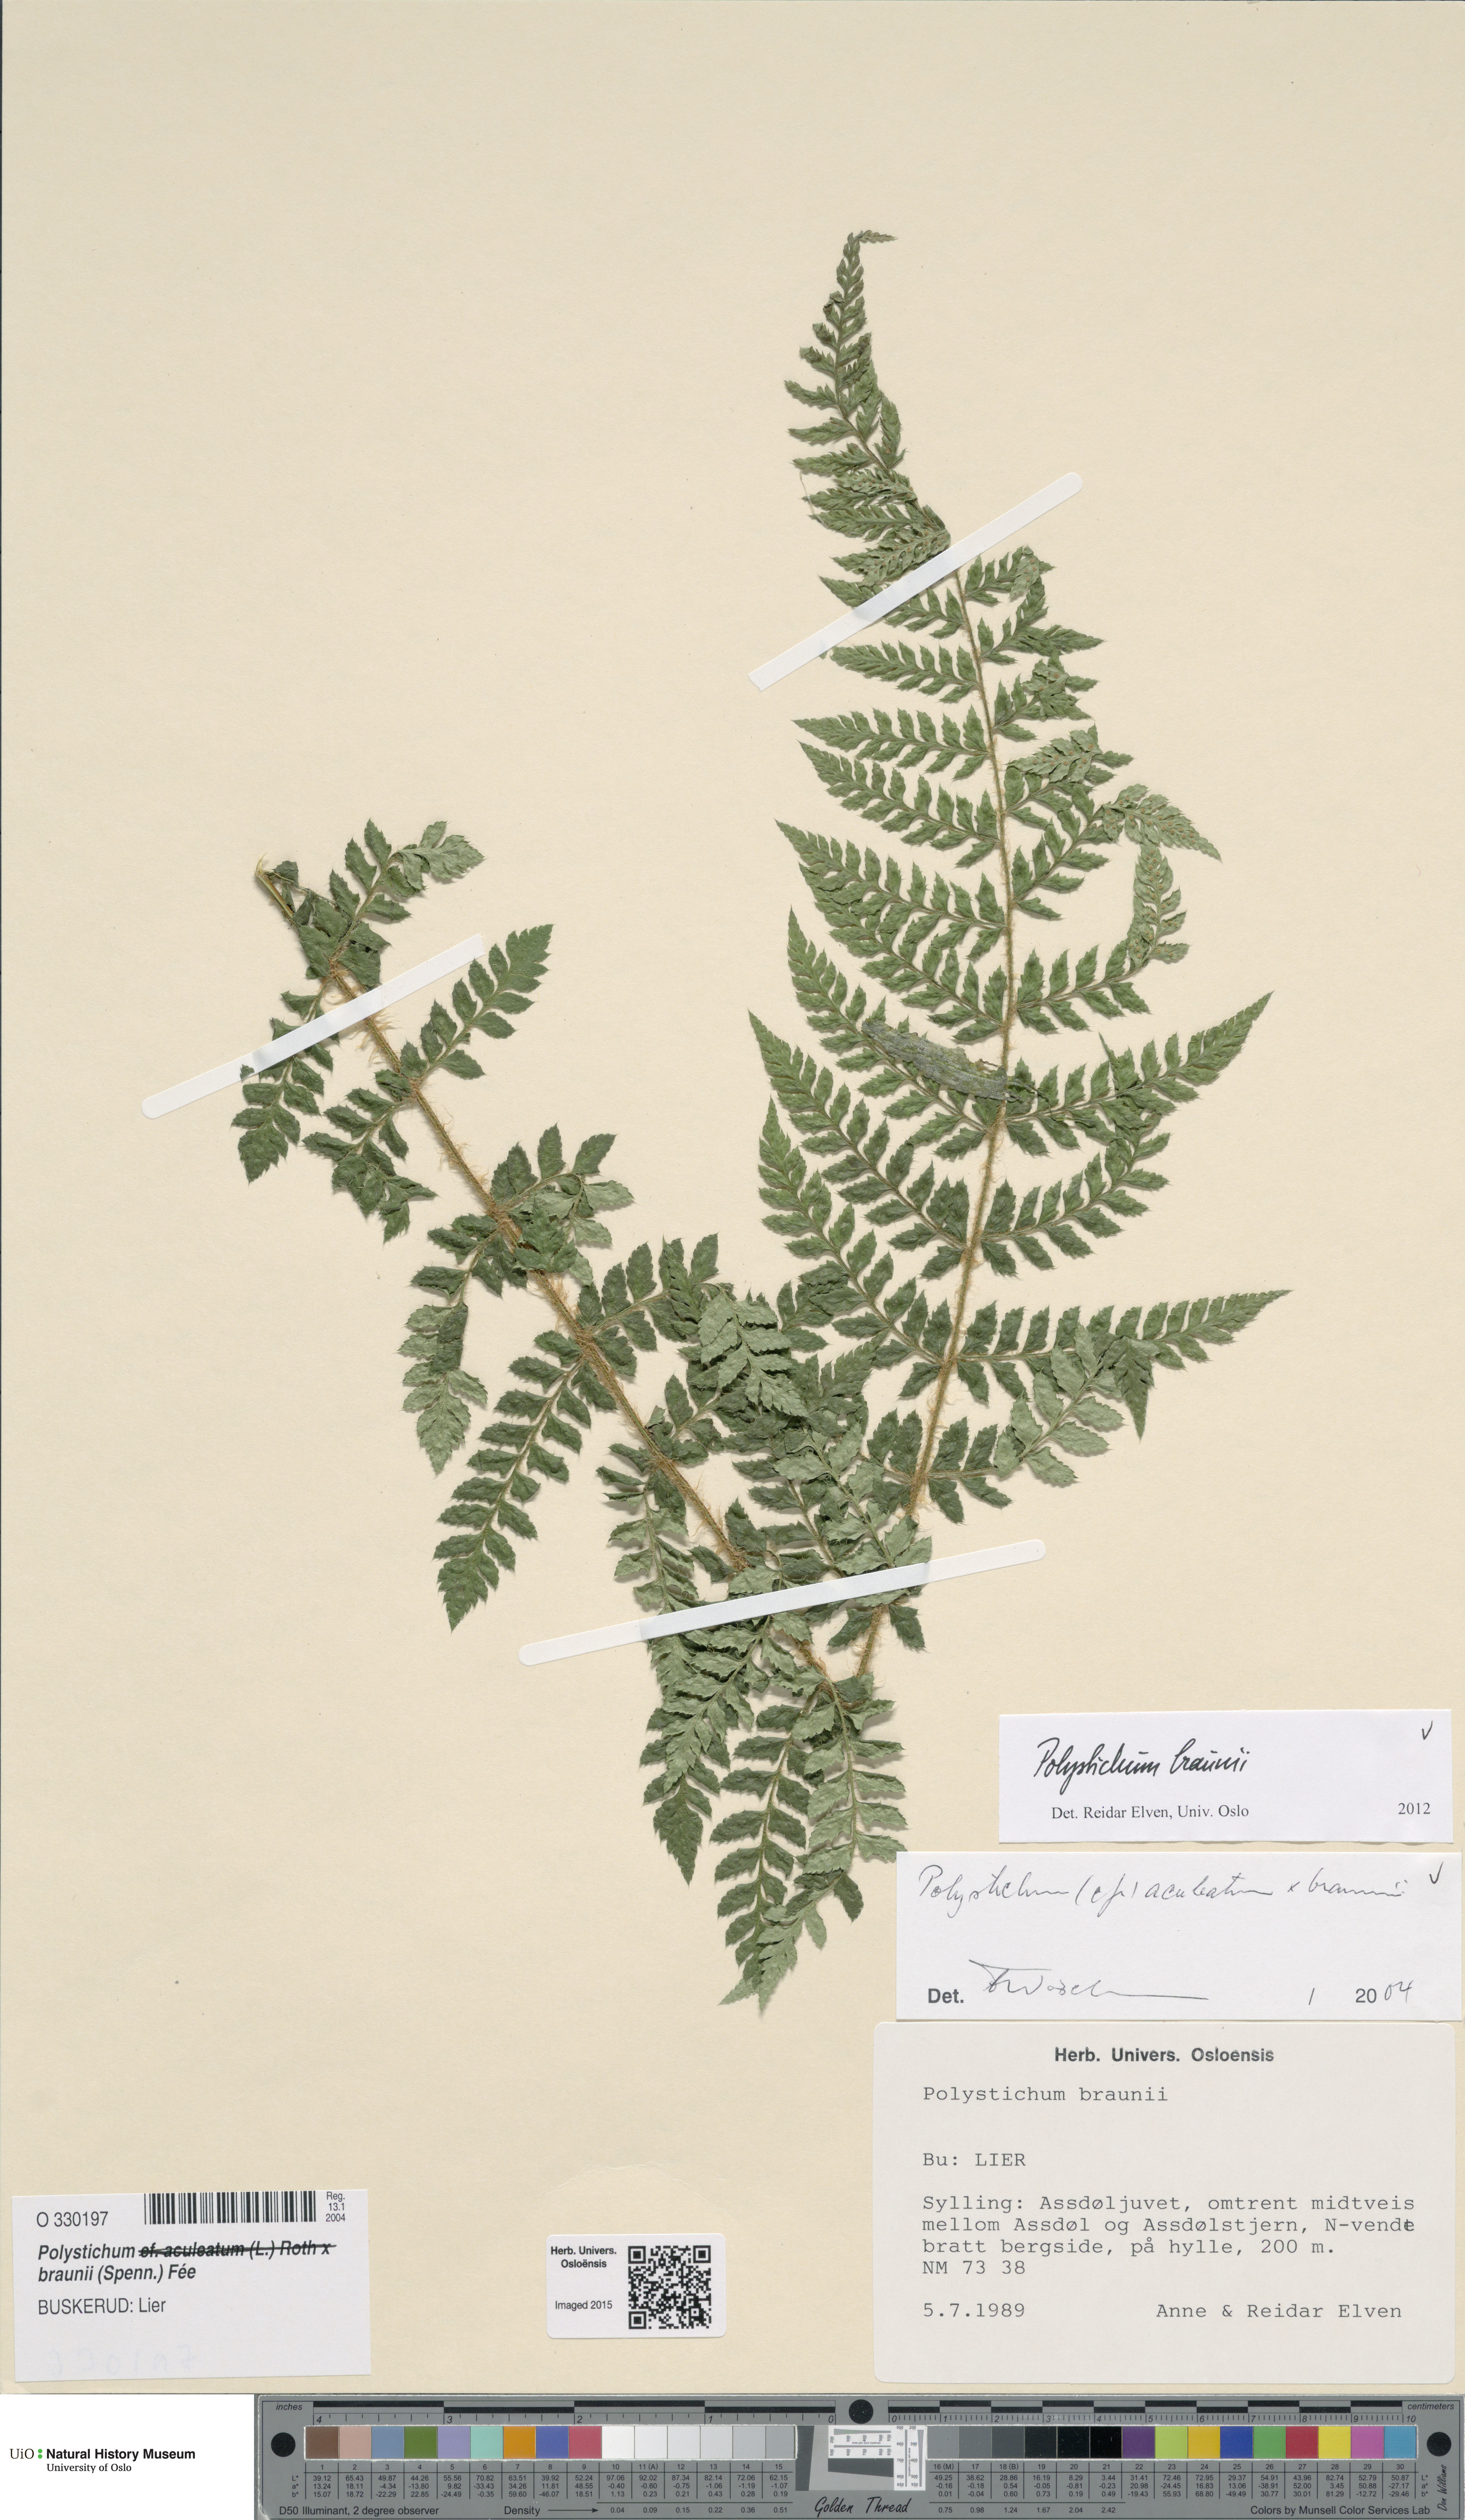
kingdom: Plantae
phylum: Tracheophyta
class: Polypodiopsida
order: Polypodiales
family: Dryopteridaceae
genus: Polystichum
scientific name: Polystichum braunii
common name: Braun's holly fern
